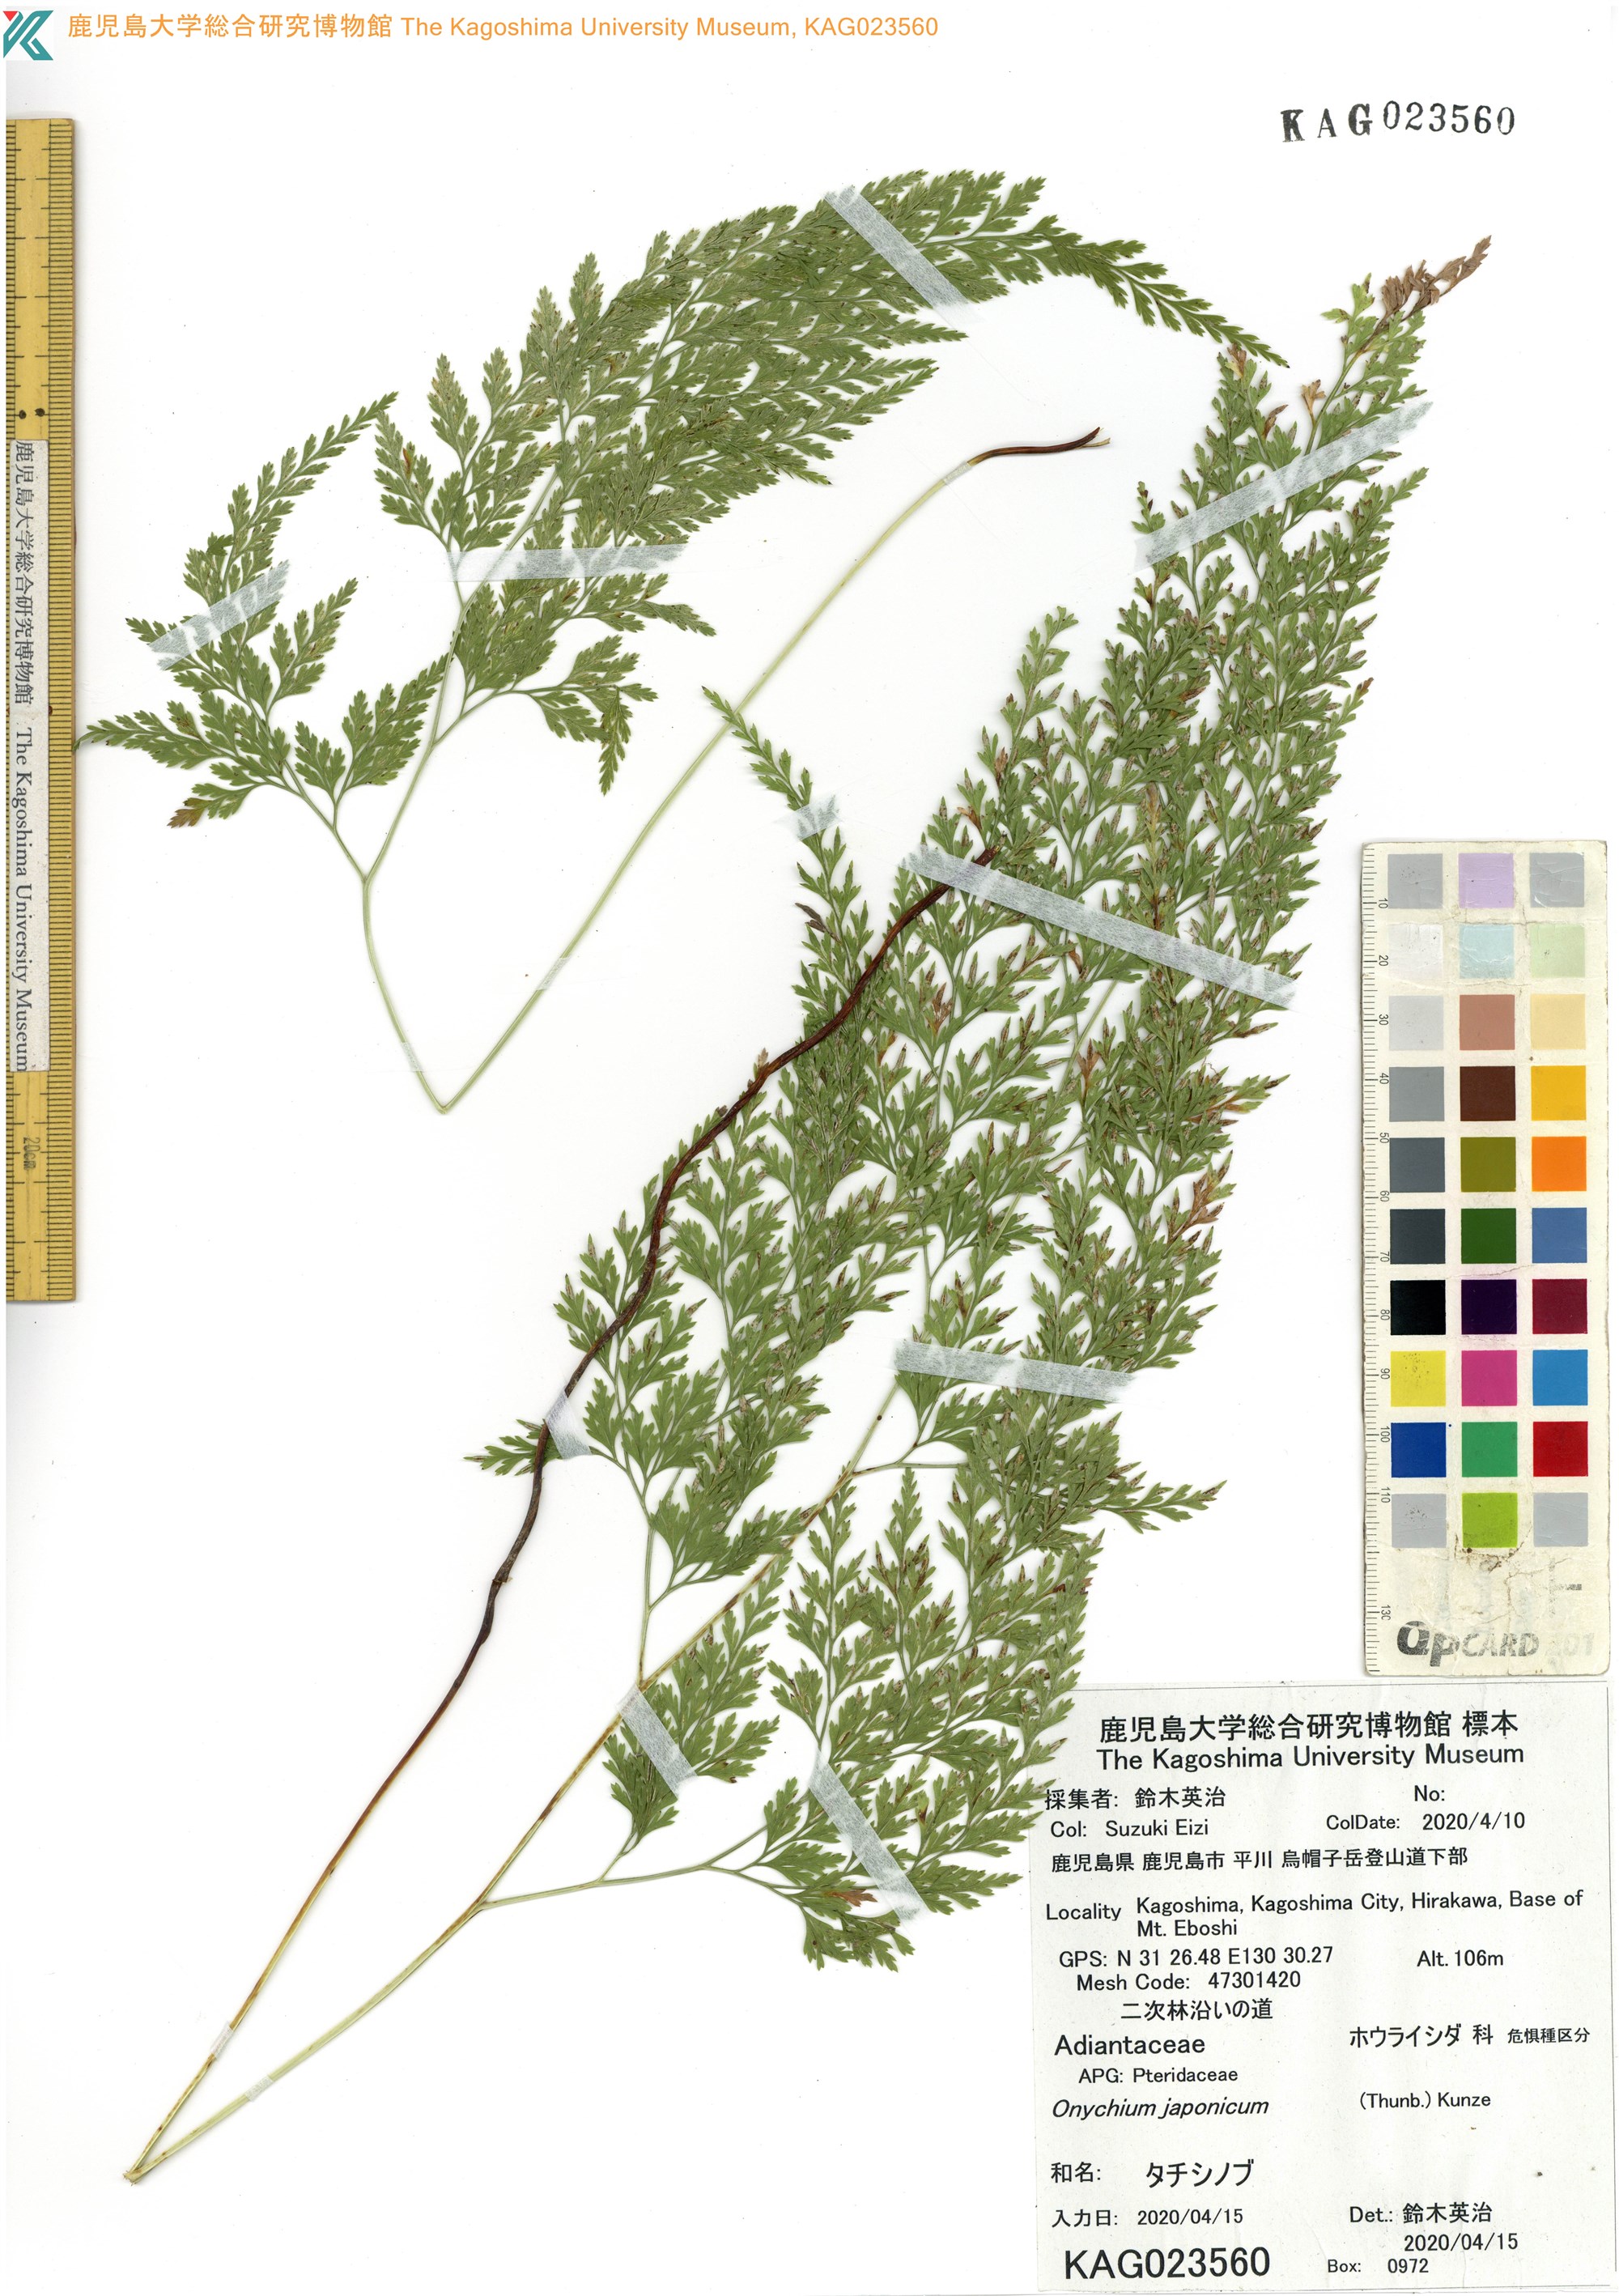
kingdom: Plantae
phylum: Tracheophyta
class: Polypodiopsida
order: Polypodiales
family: Pteridaceae
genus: Onychium
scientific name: Onychium japonicum
